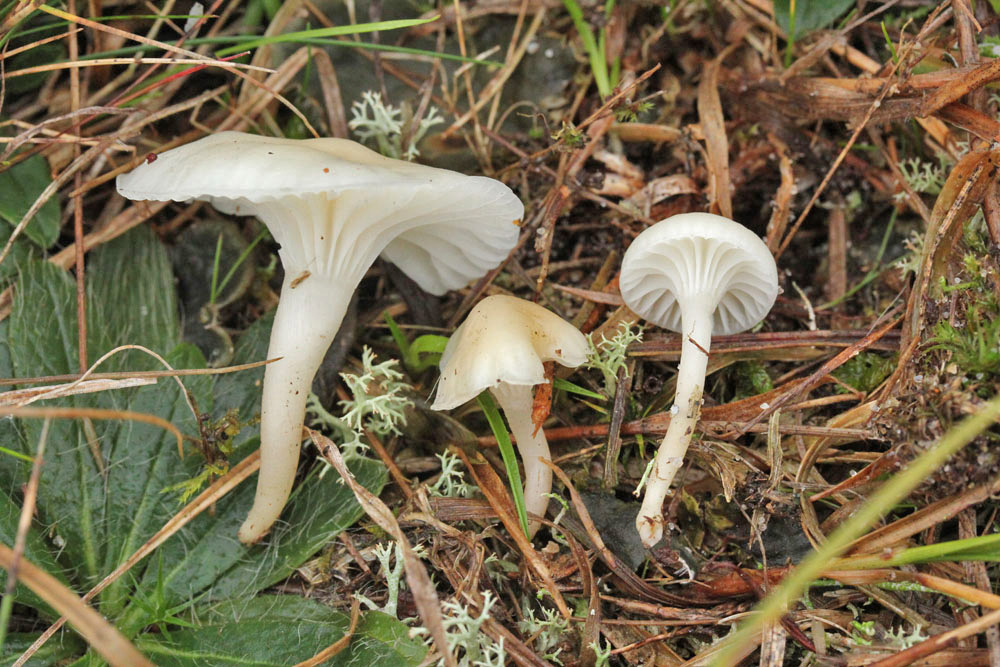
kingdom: Fungi
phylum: Basidiomycota
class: Agaricomycetes
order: Agaricales
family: Hygrophoraceae
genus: Cuphophyllus
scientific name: Cuphophyllus virgineus
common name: snehvid vokshat
